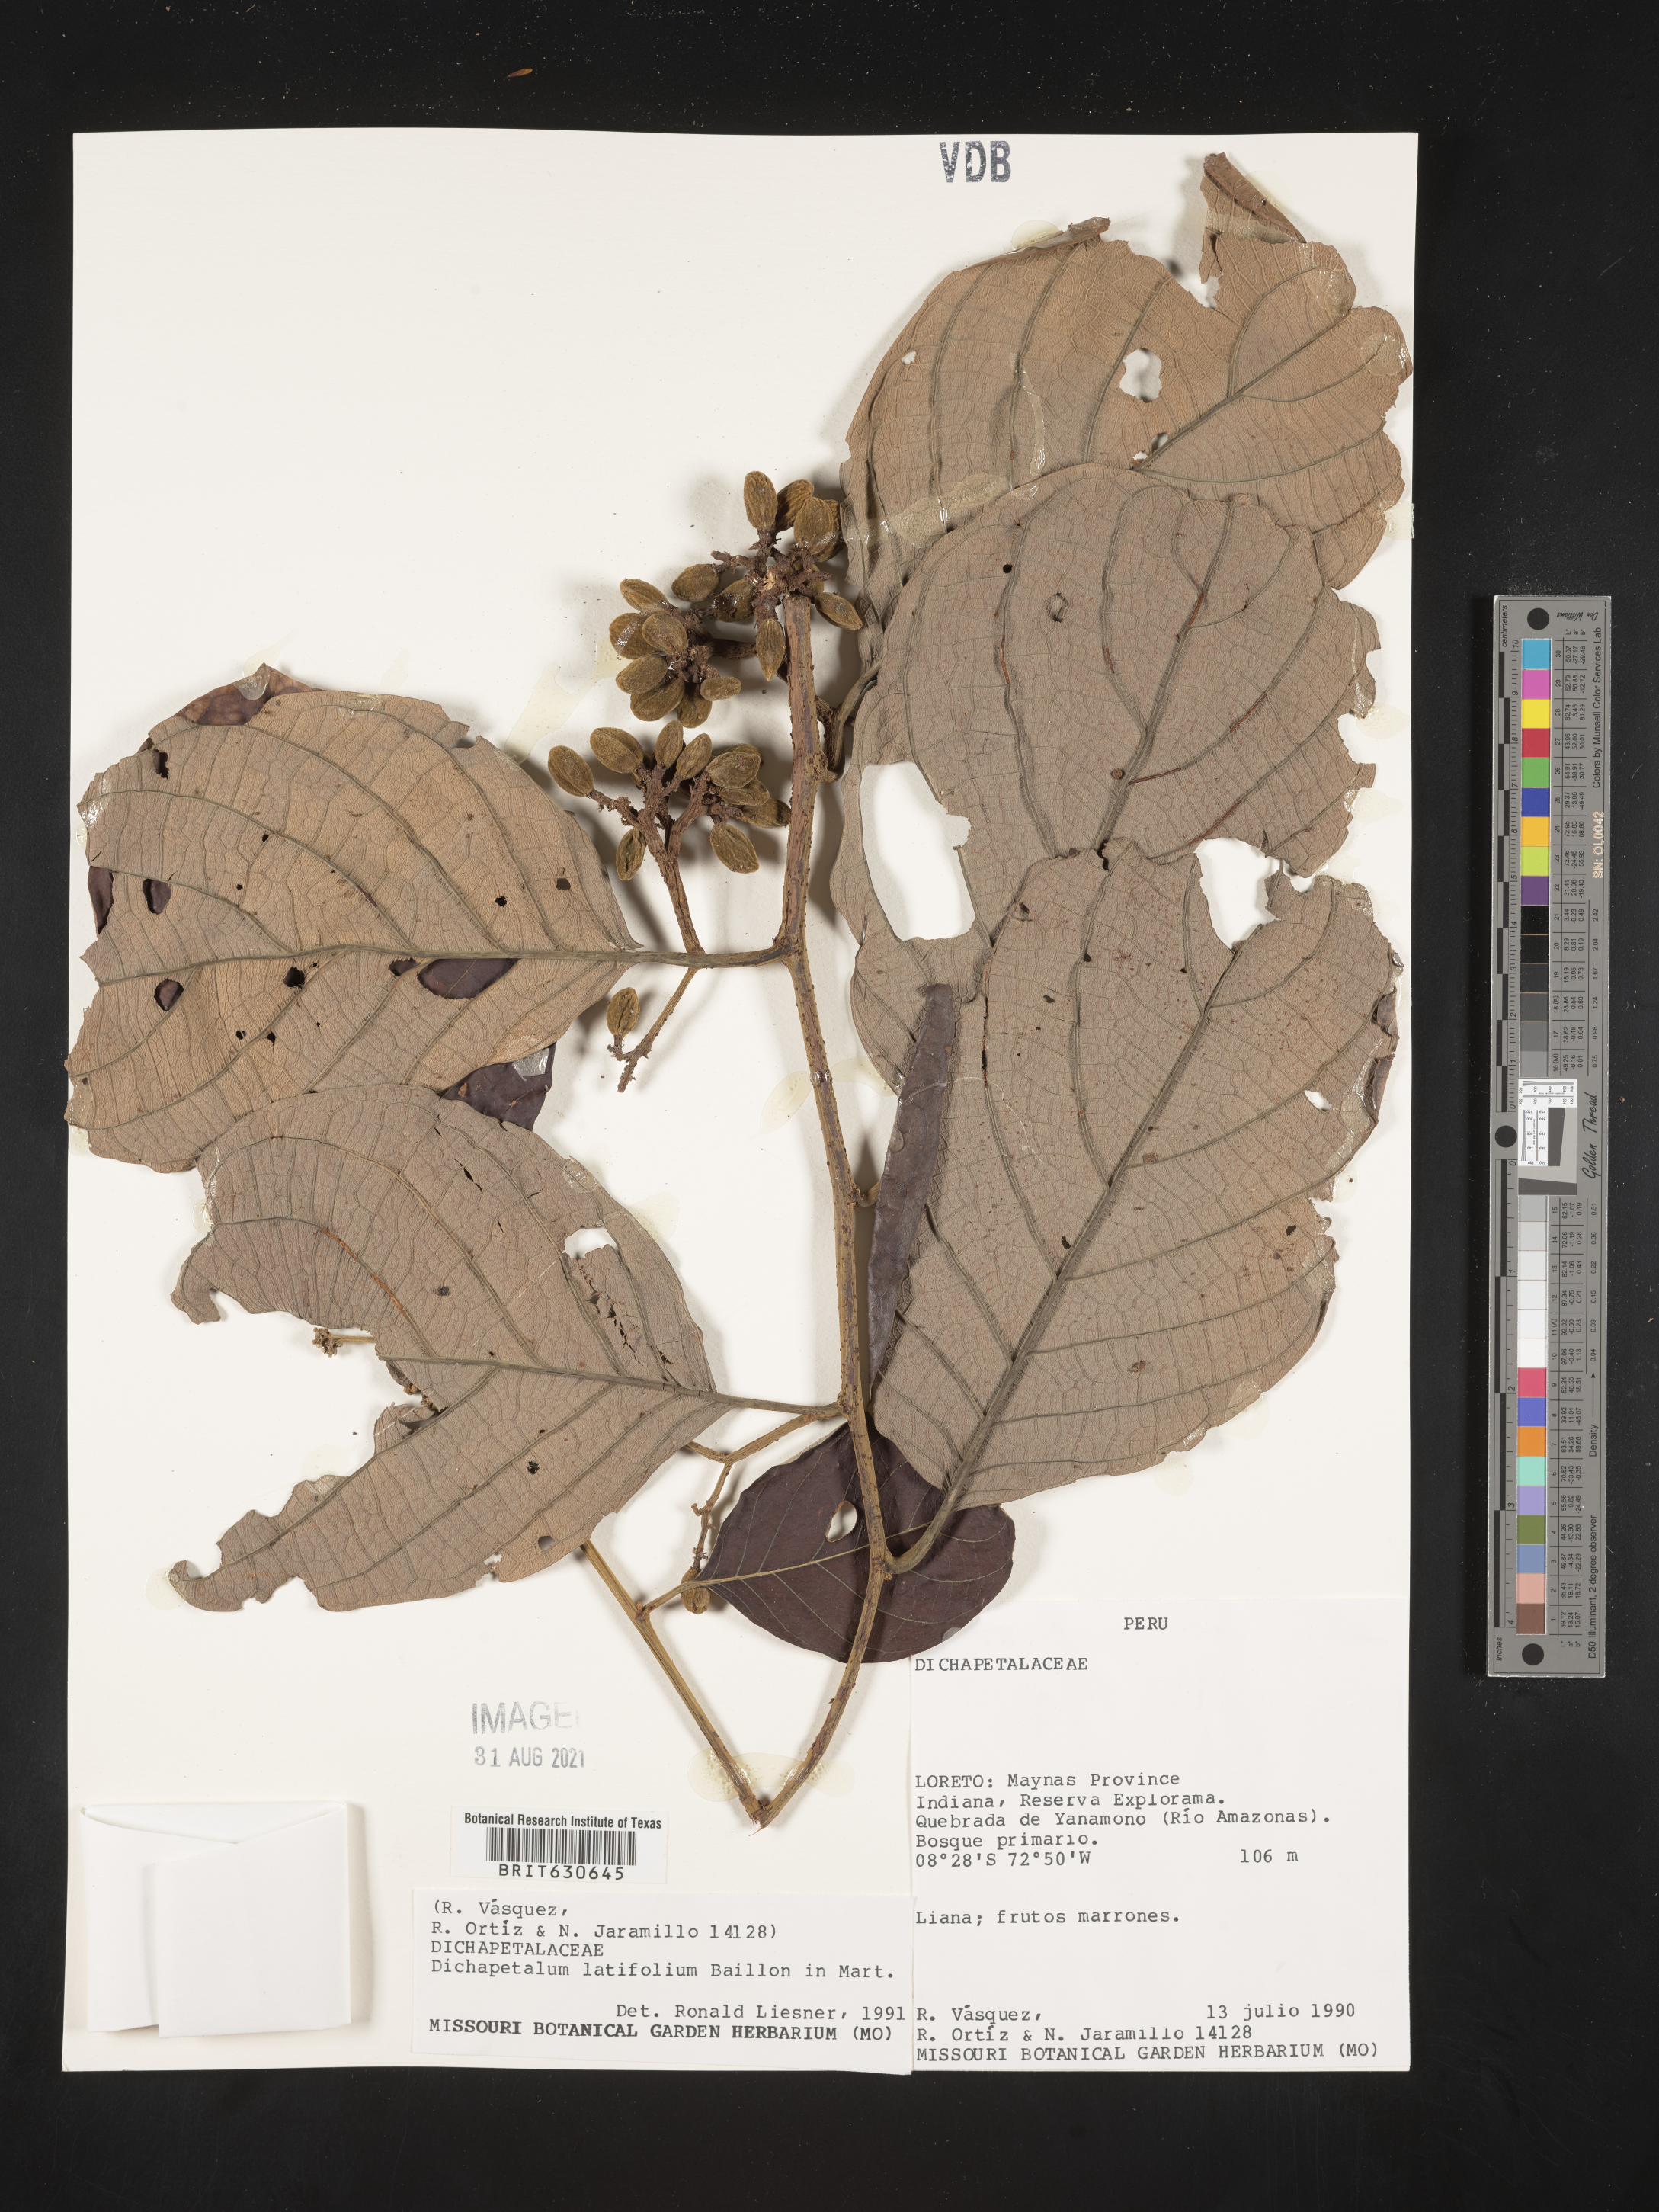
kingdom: Plantae
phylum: Tracheophyta
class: Magnoliopsida
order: Malpighiales
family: Dichapetalaceae
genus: Dichapetalum
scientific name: Dichapetalum
